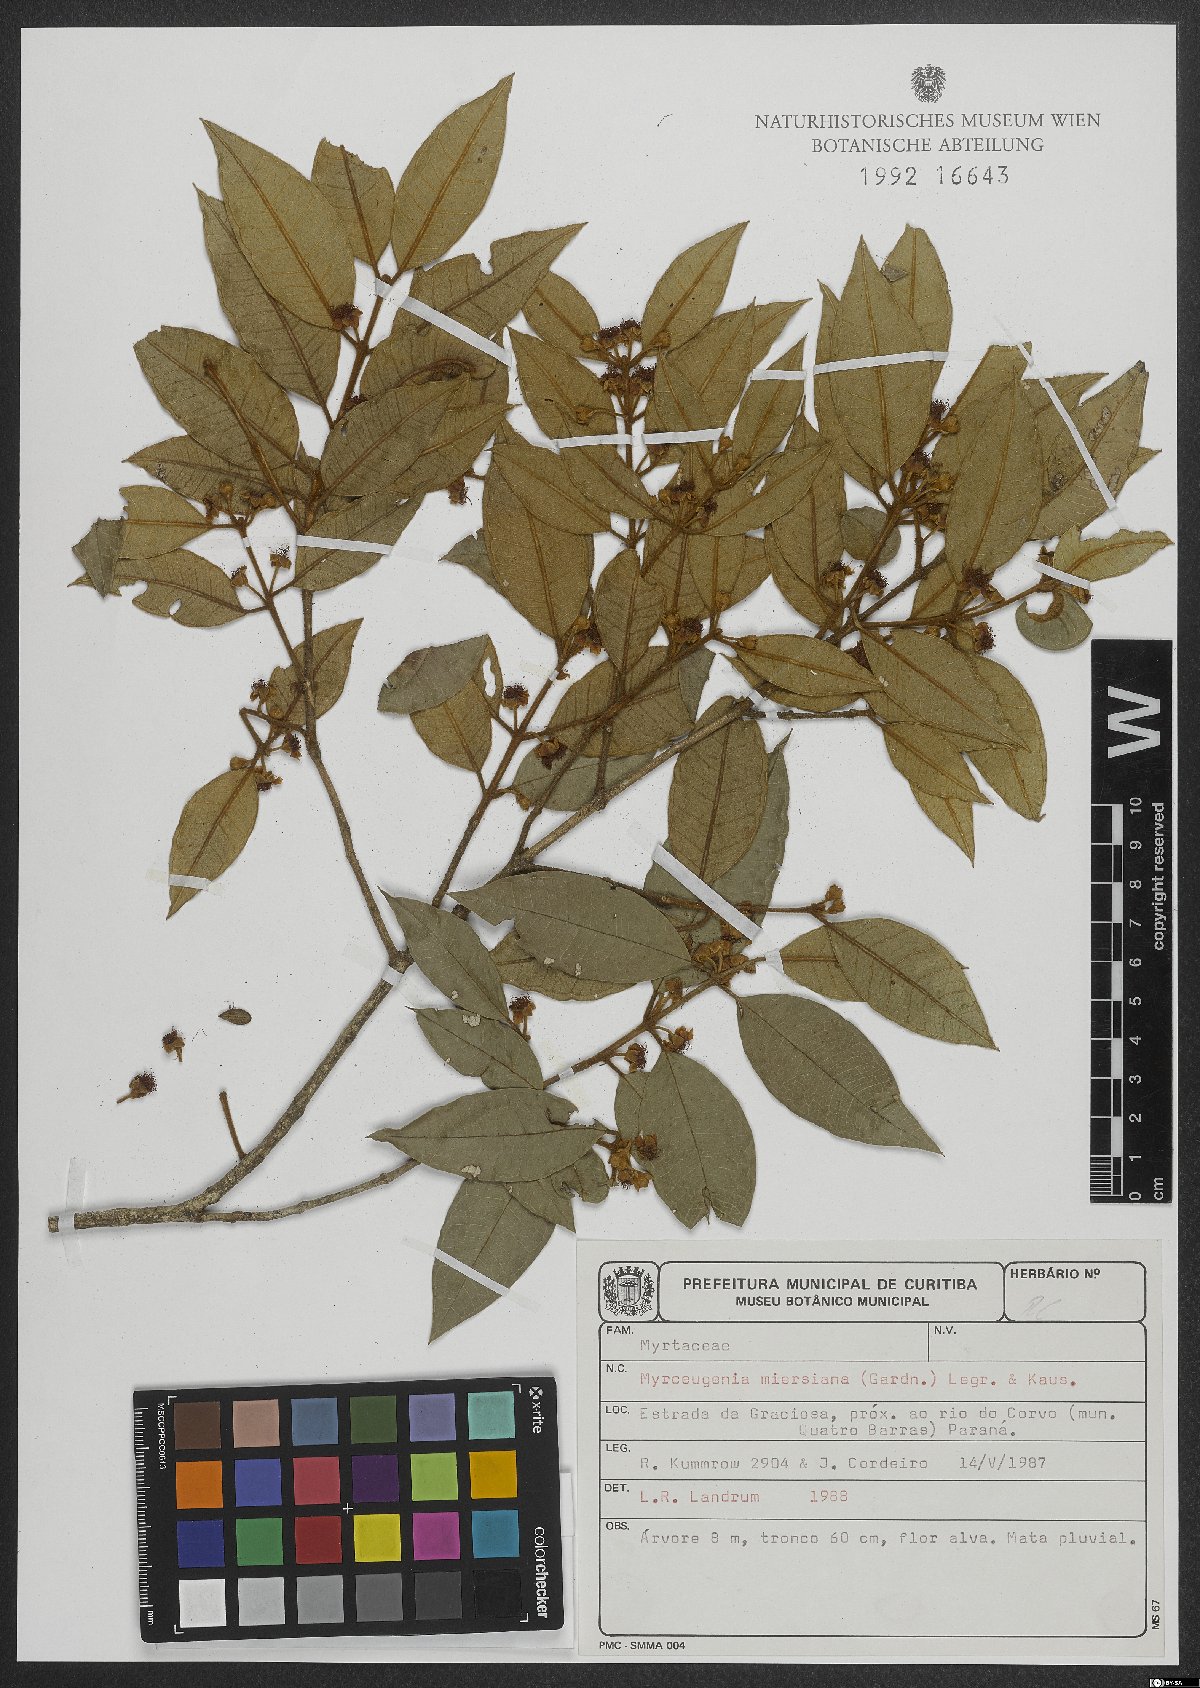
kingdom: Plantae
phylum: Tracheophyta
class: Magnoliopsida
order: Myrtales
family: Myrtaceae
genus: Myrceugenia
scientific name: Myrceugenia miersiana
